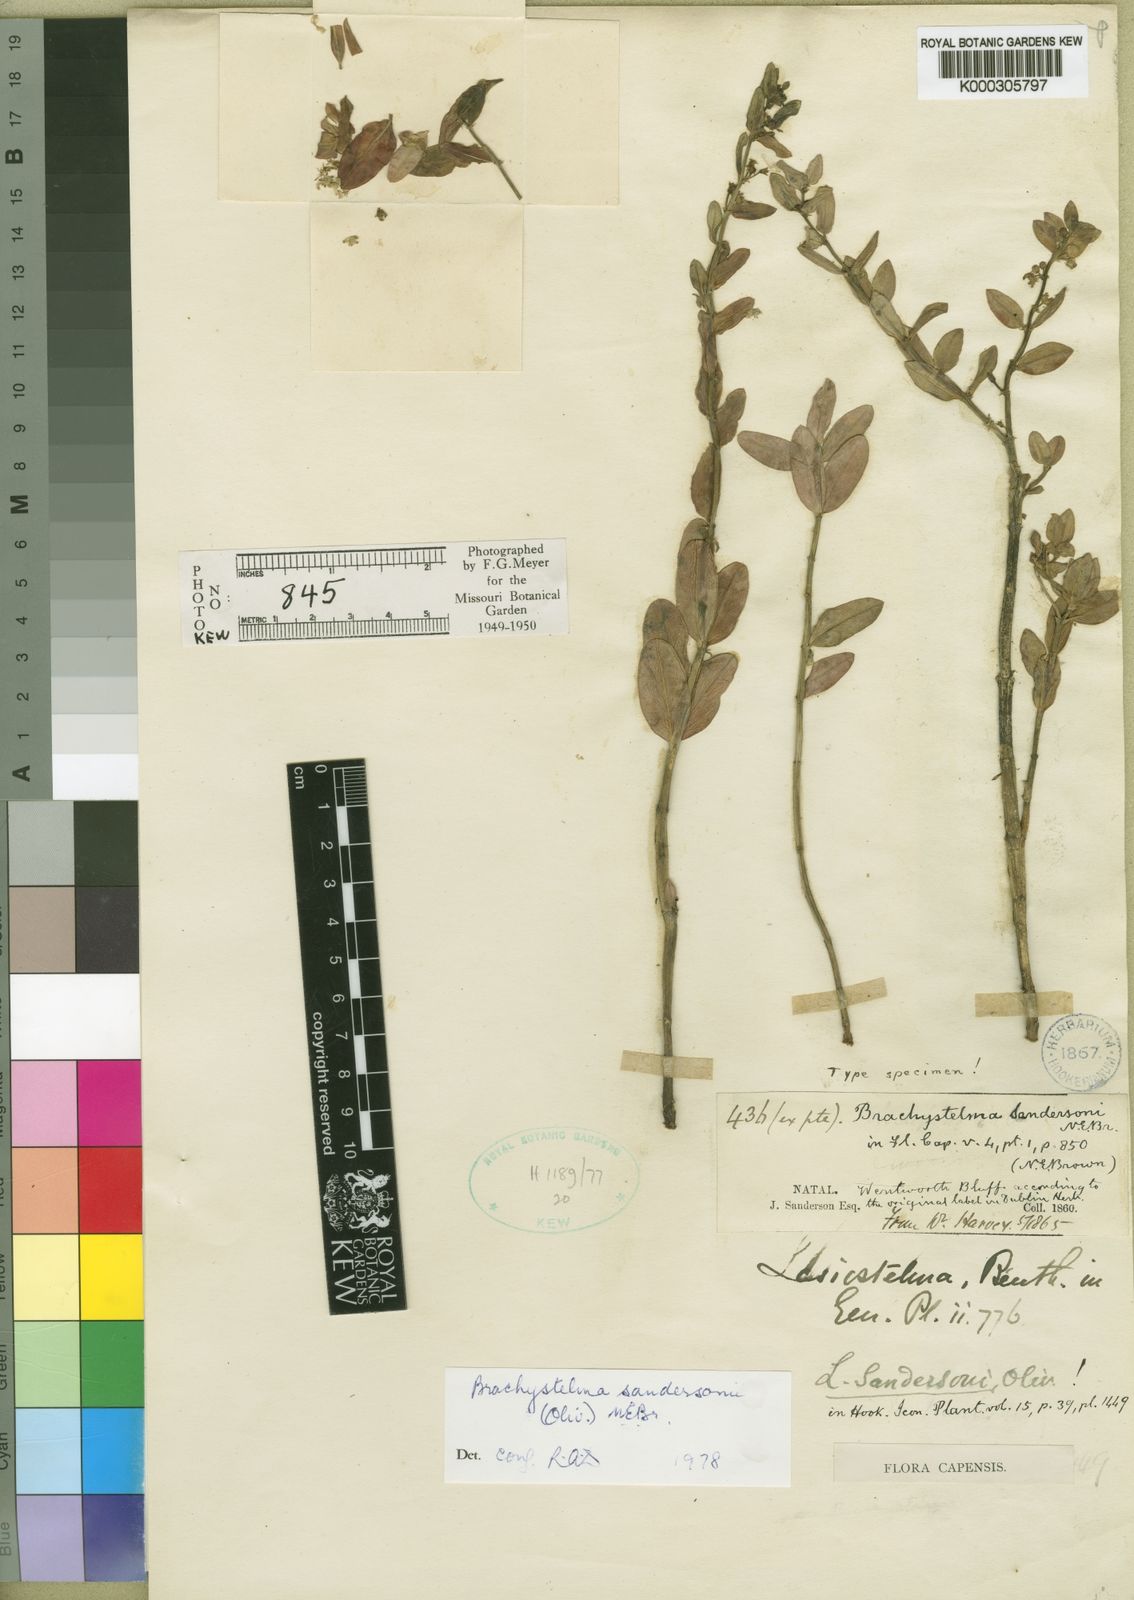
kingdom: Plantae
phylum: Tracheophyta
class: Magnoliopsida
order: Gentianales
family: Apocynaceae
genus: Ceropegia
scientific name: Ceropegia sandersoniana
